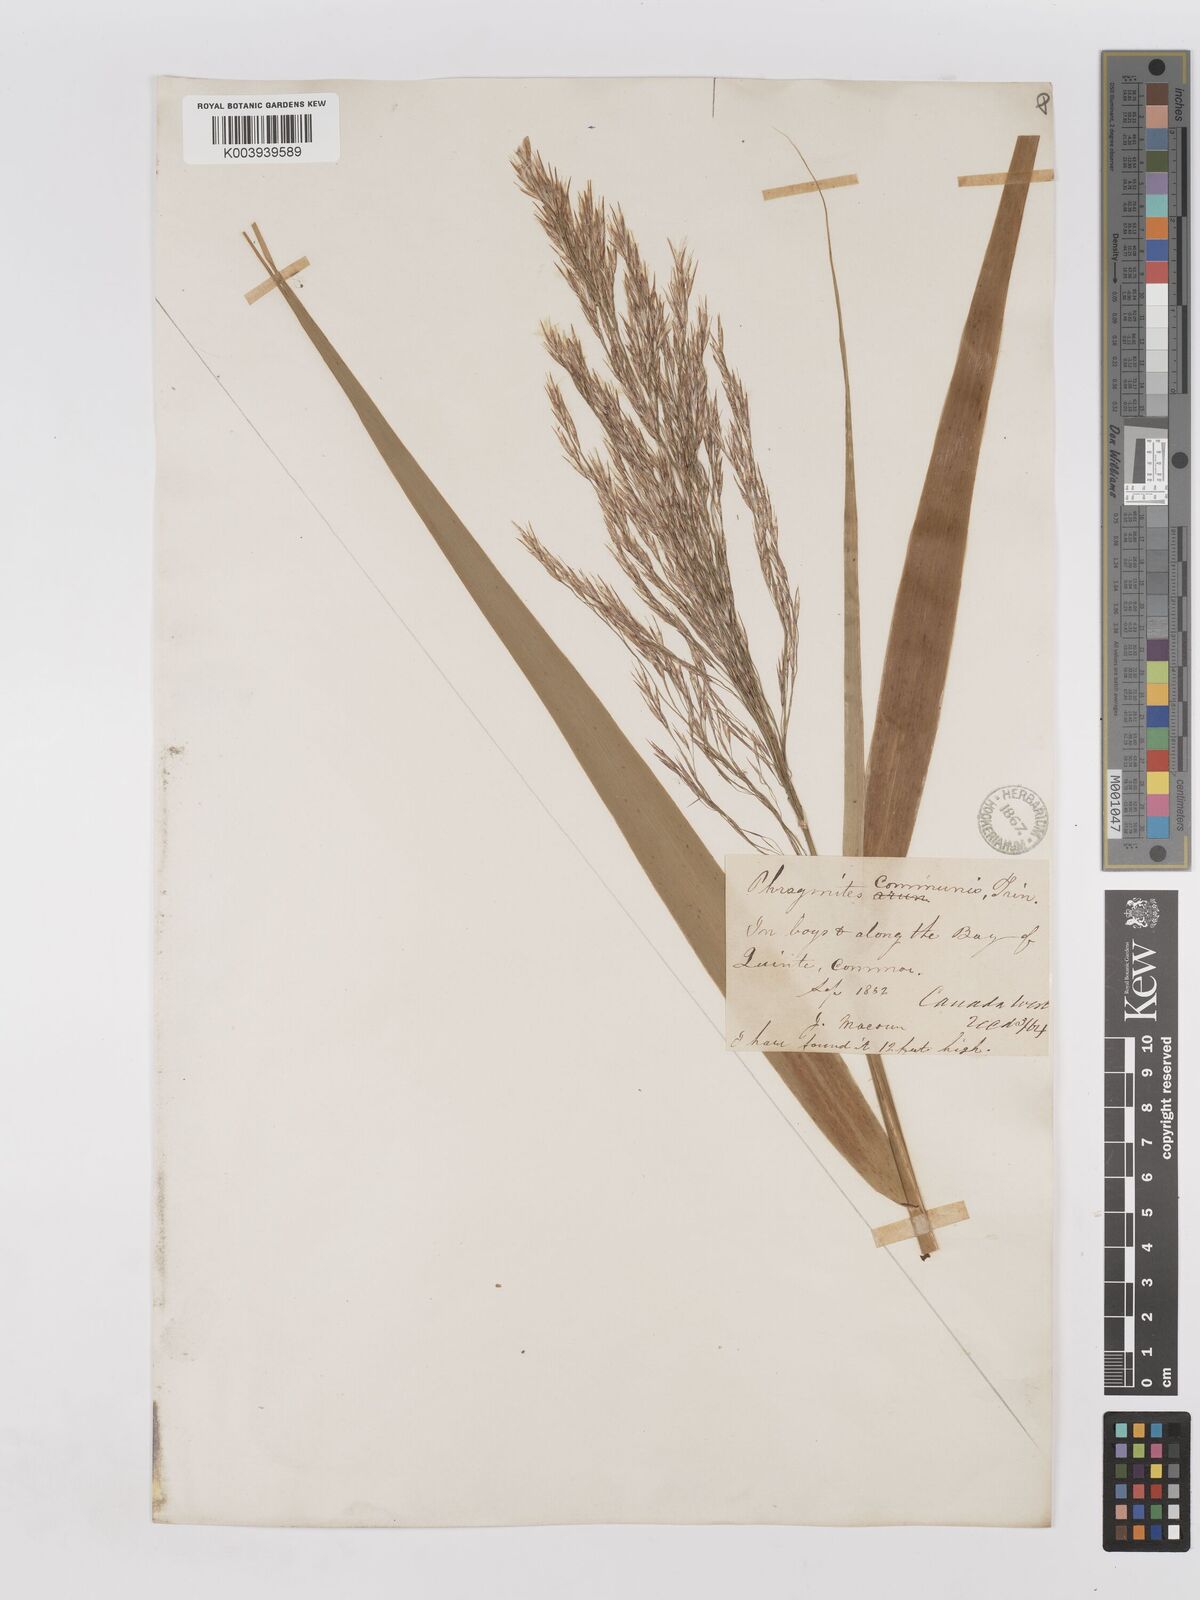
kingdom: Plantae
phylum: Tracheophyta
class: Liliopsida
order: Poales
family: Poaceae
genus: Phragmites
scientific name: Phragmites australis
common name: Common reed
